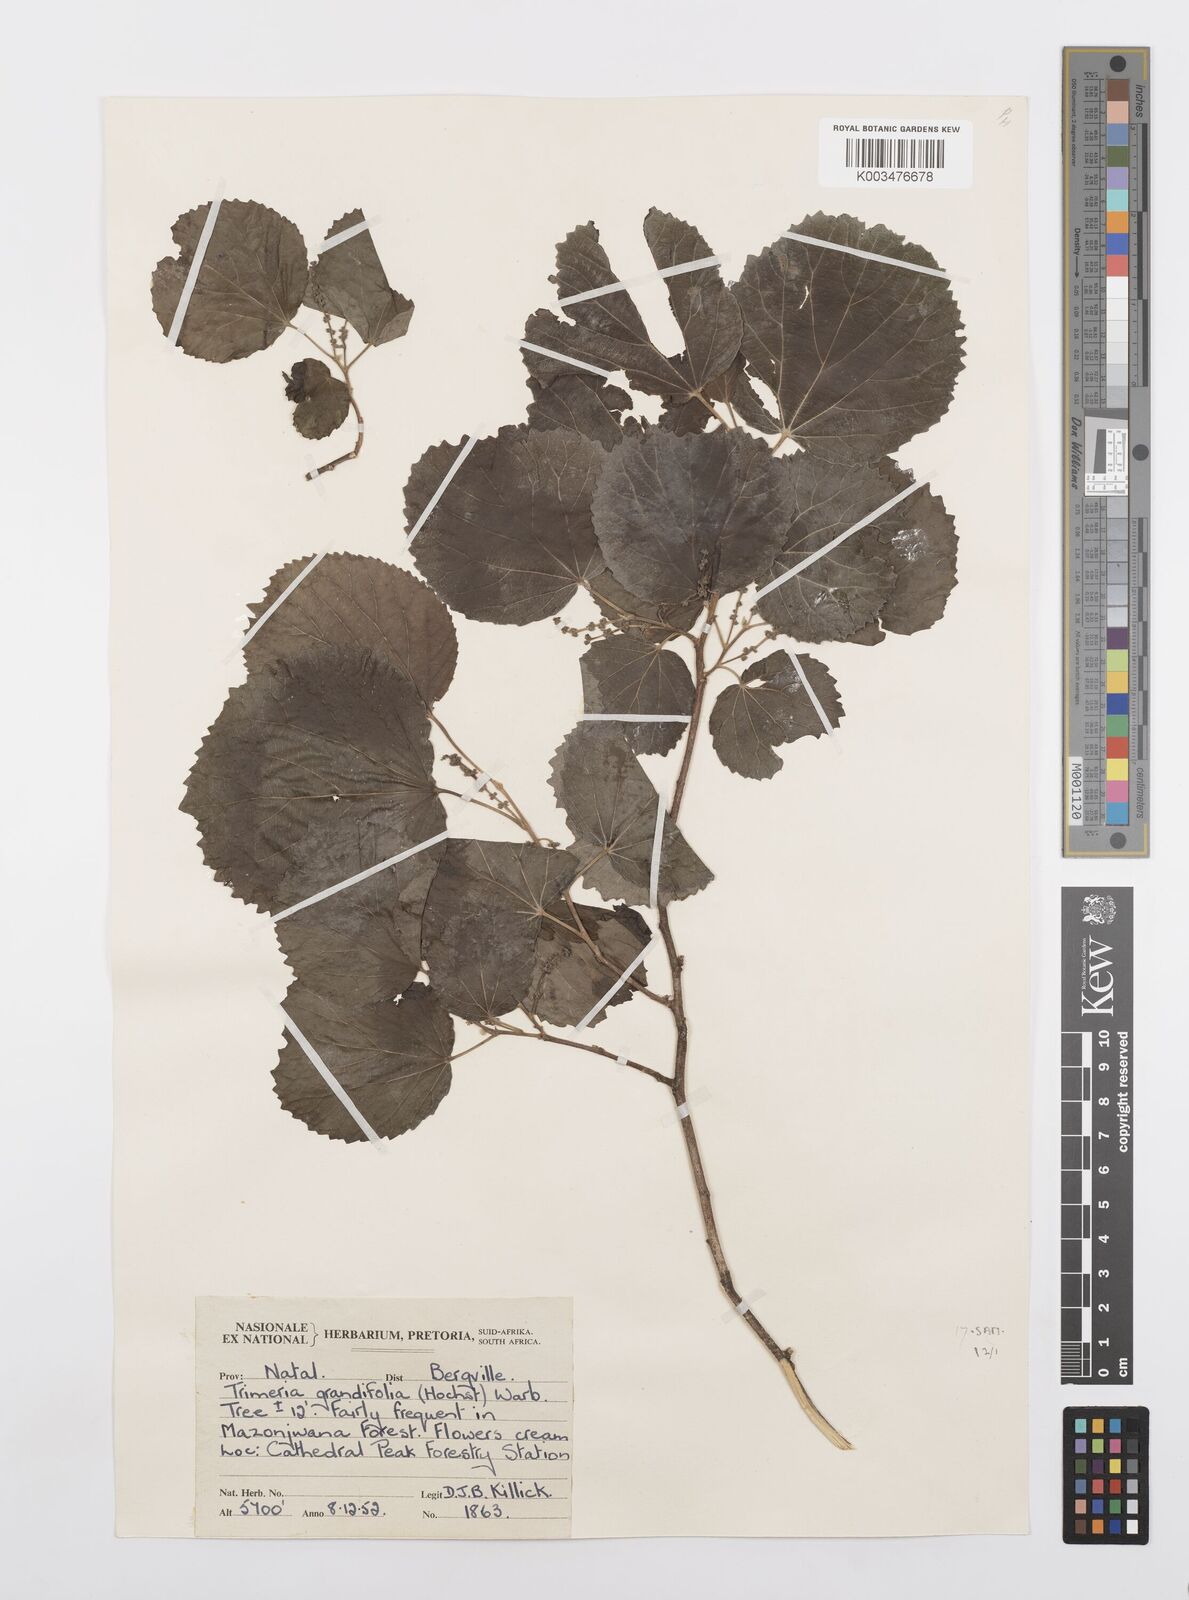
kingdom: Plantae
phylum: Tracheophyta
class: Magnoliopsida
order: Malpighiales
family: Salicaceae
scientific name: Salicaceae
